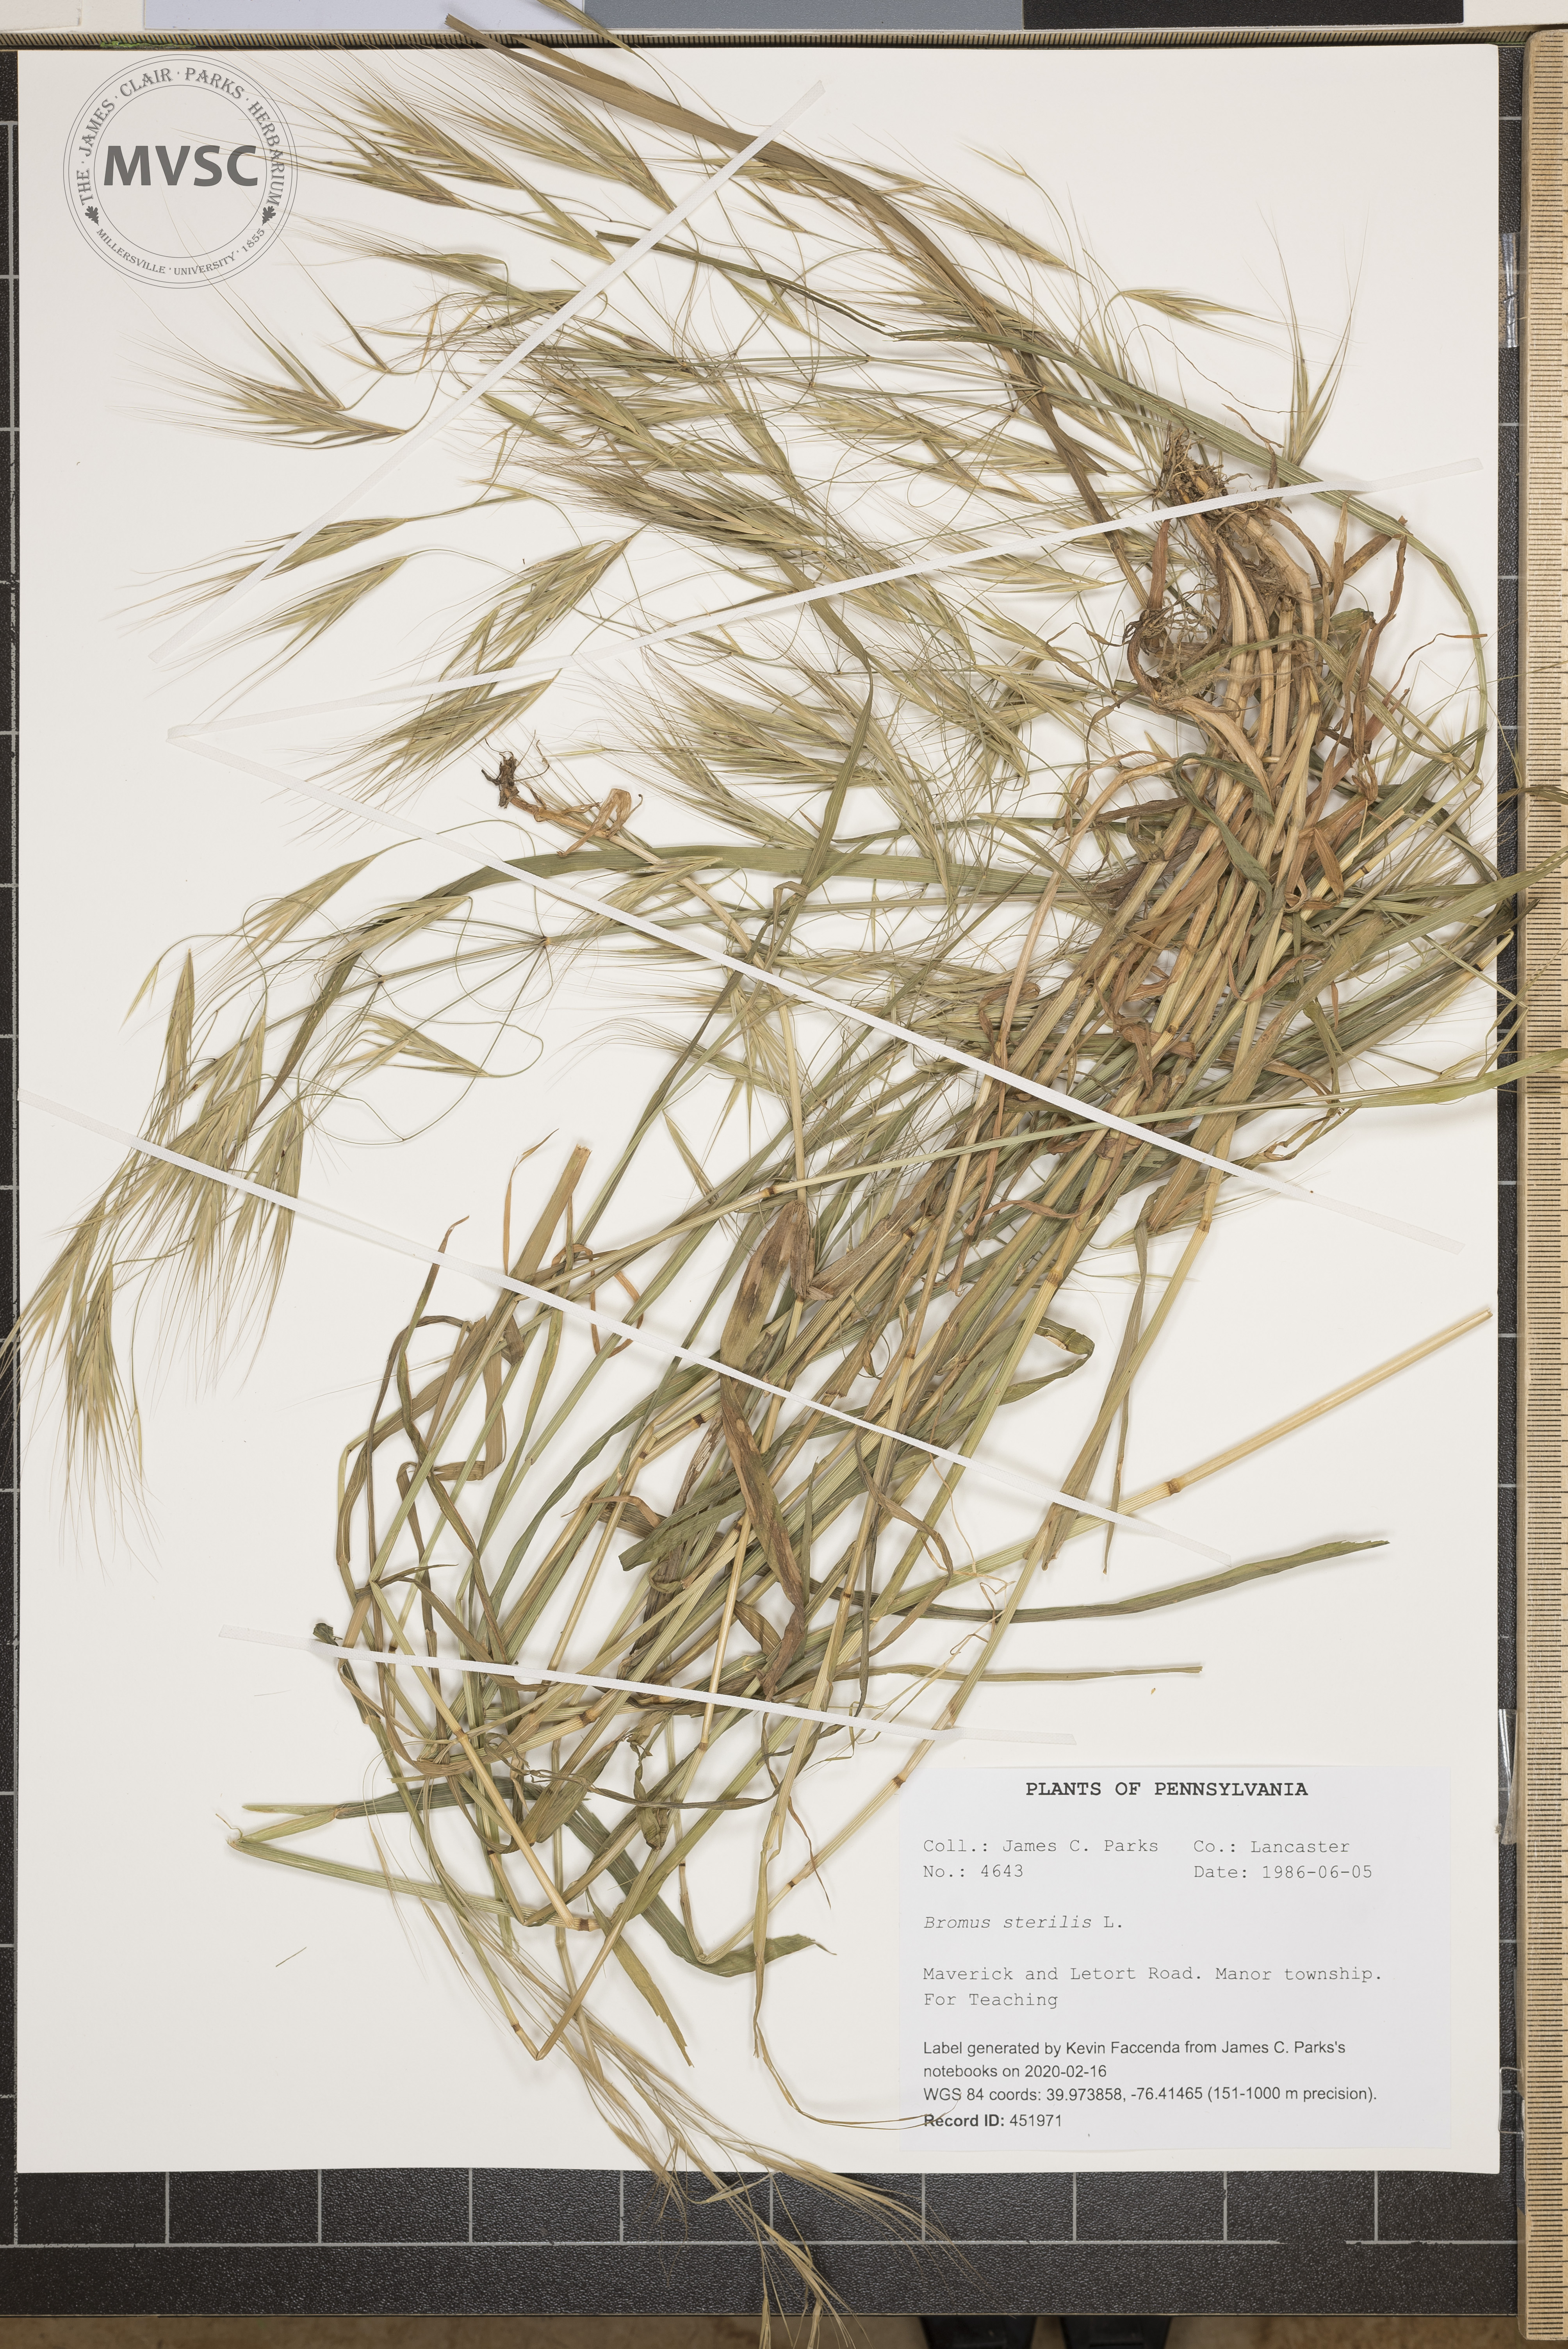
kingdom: Plantae
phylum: Tracheophyta
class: Liliopsida
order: Poales
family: Poaceae
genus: Bromus
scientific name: Bromus sterilis
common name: Poverty brome
